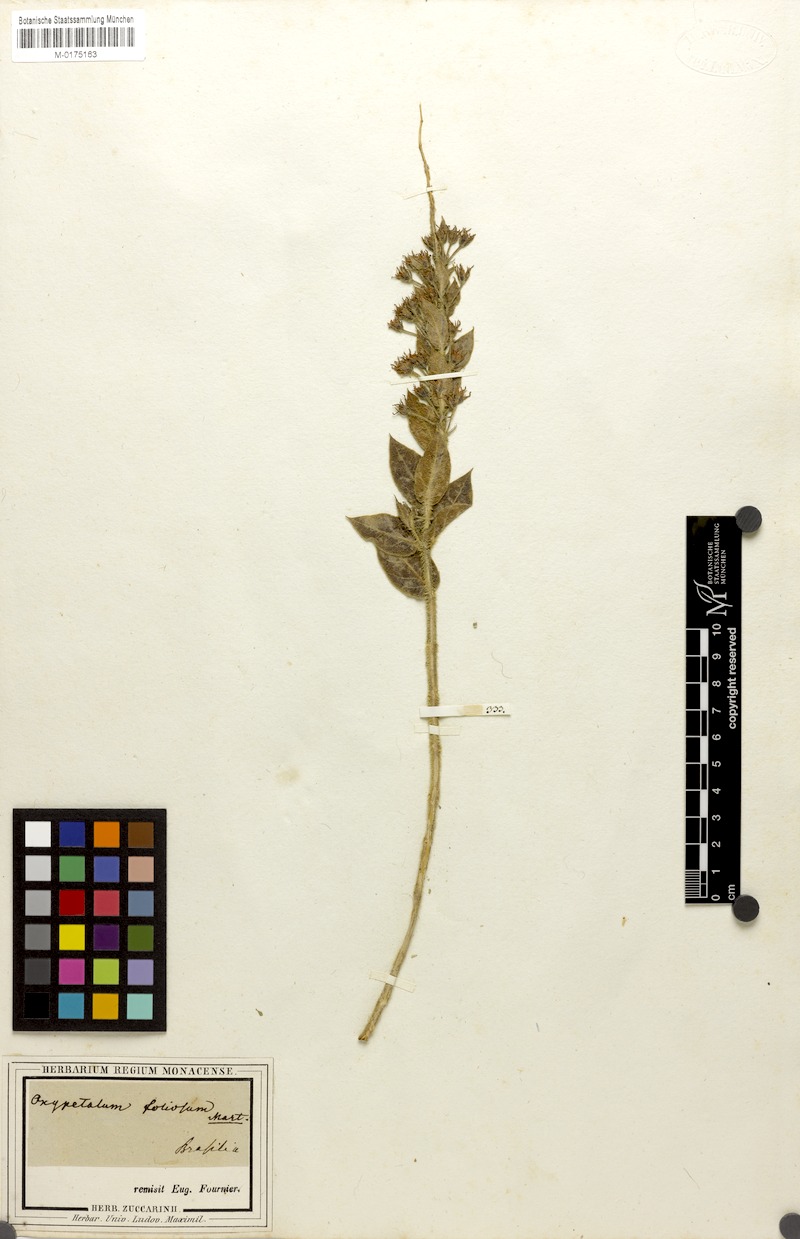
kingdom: Plantae
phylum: Tracheophyta
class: Magnoliopsida
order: Gentianales
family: Apocynaceae
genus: Oxypetalum
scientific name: Oxypetalum foliosum
